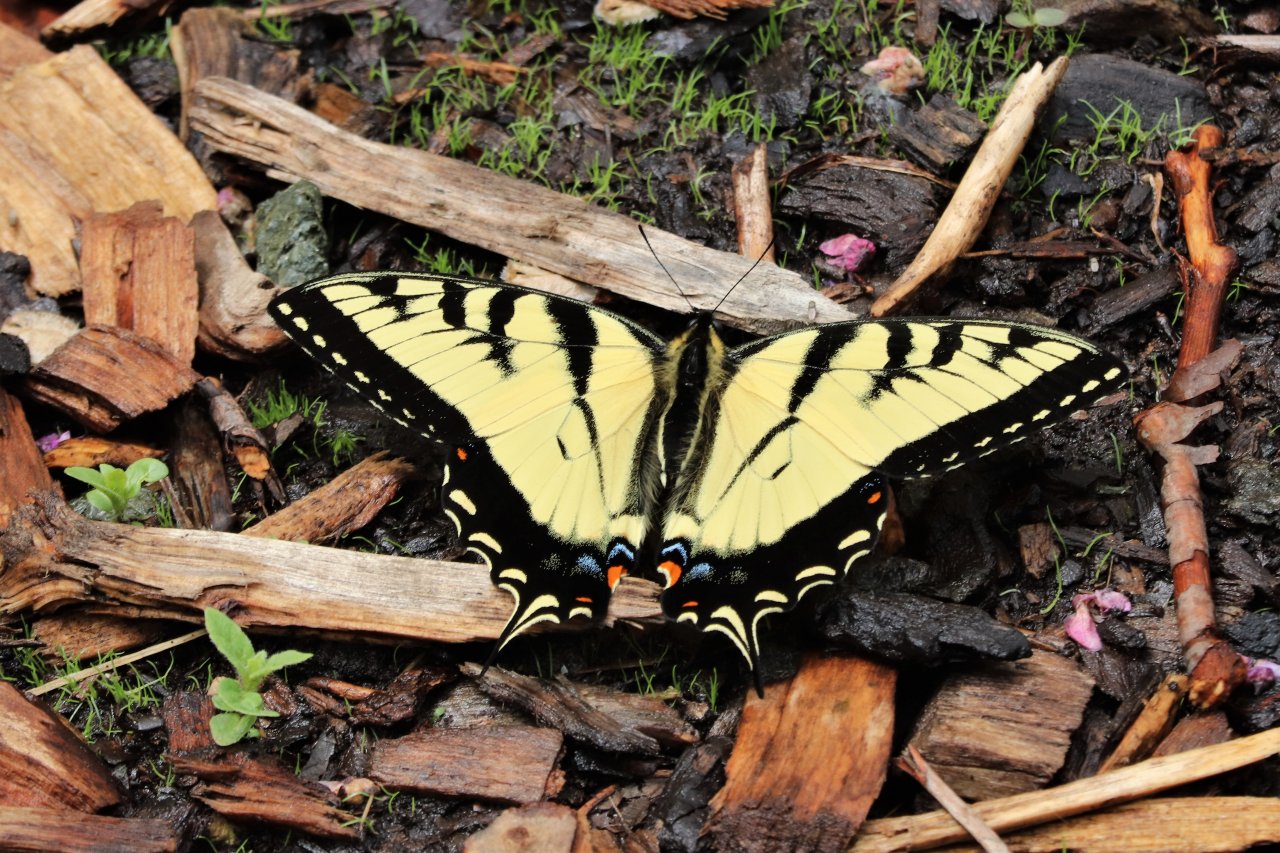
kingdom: Animalia
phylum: Arthropoda
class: Insecta
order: Lepidoptera
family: Papilionidae
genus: Pterourus
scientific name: Pterourus glaucus
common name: Eastern Tiger Swallowtail
